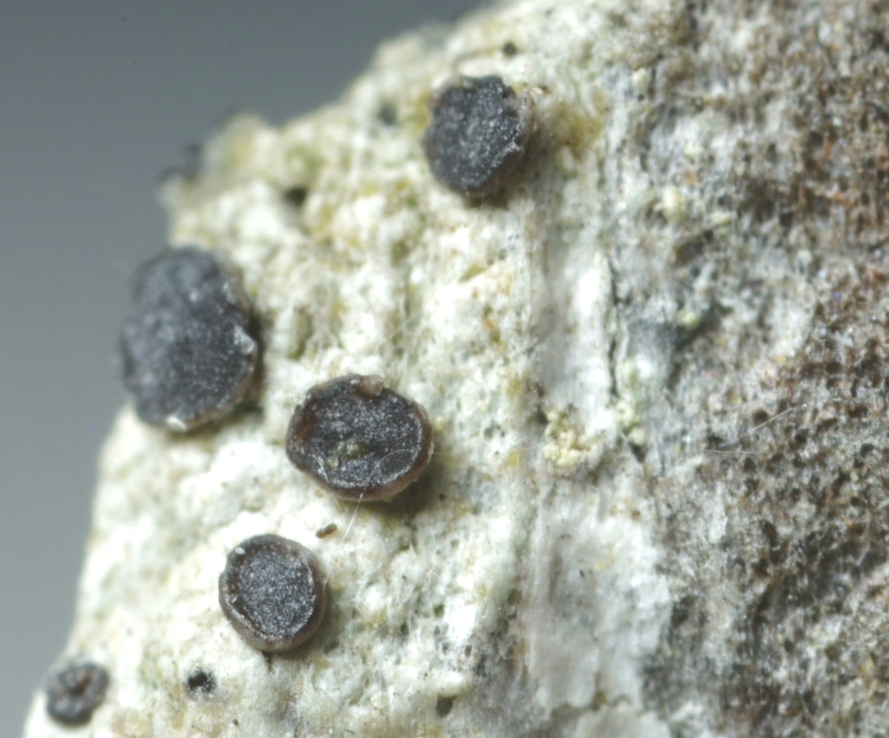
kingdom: Fungi
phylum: Ascomycota
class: Lecanoromycetes
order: Lecanorales
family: Ramalinaceae
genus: Cliostomum
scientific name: Cliostomum griffithii
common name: trefarvet tensporelav
